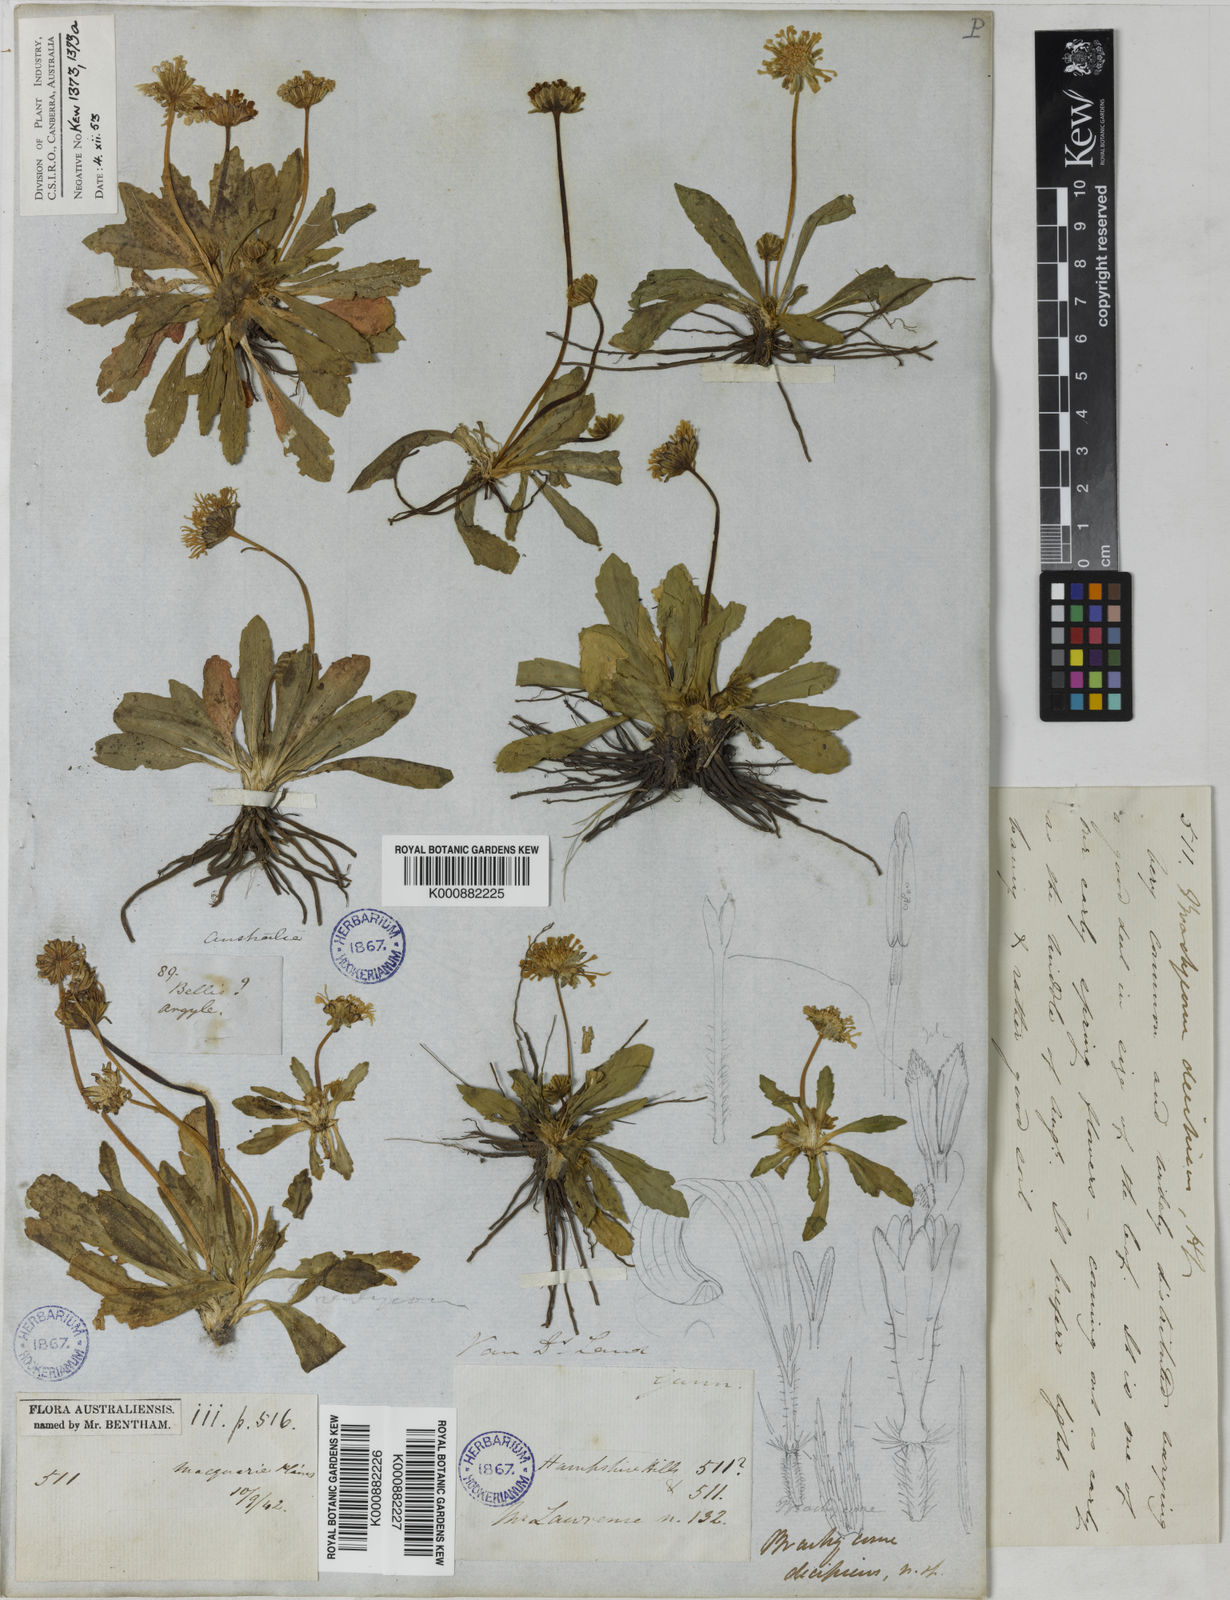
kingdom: Plantae
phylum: Tracheophyta
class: Magnoliopsida
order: Asterales
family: Asteraceae
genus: Brachyscome
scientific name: Brachyscome decipiens
